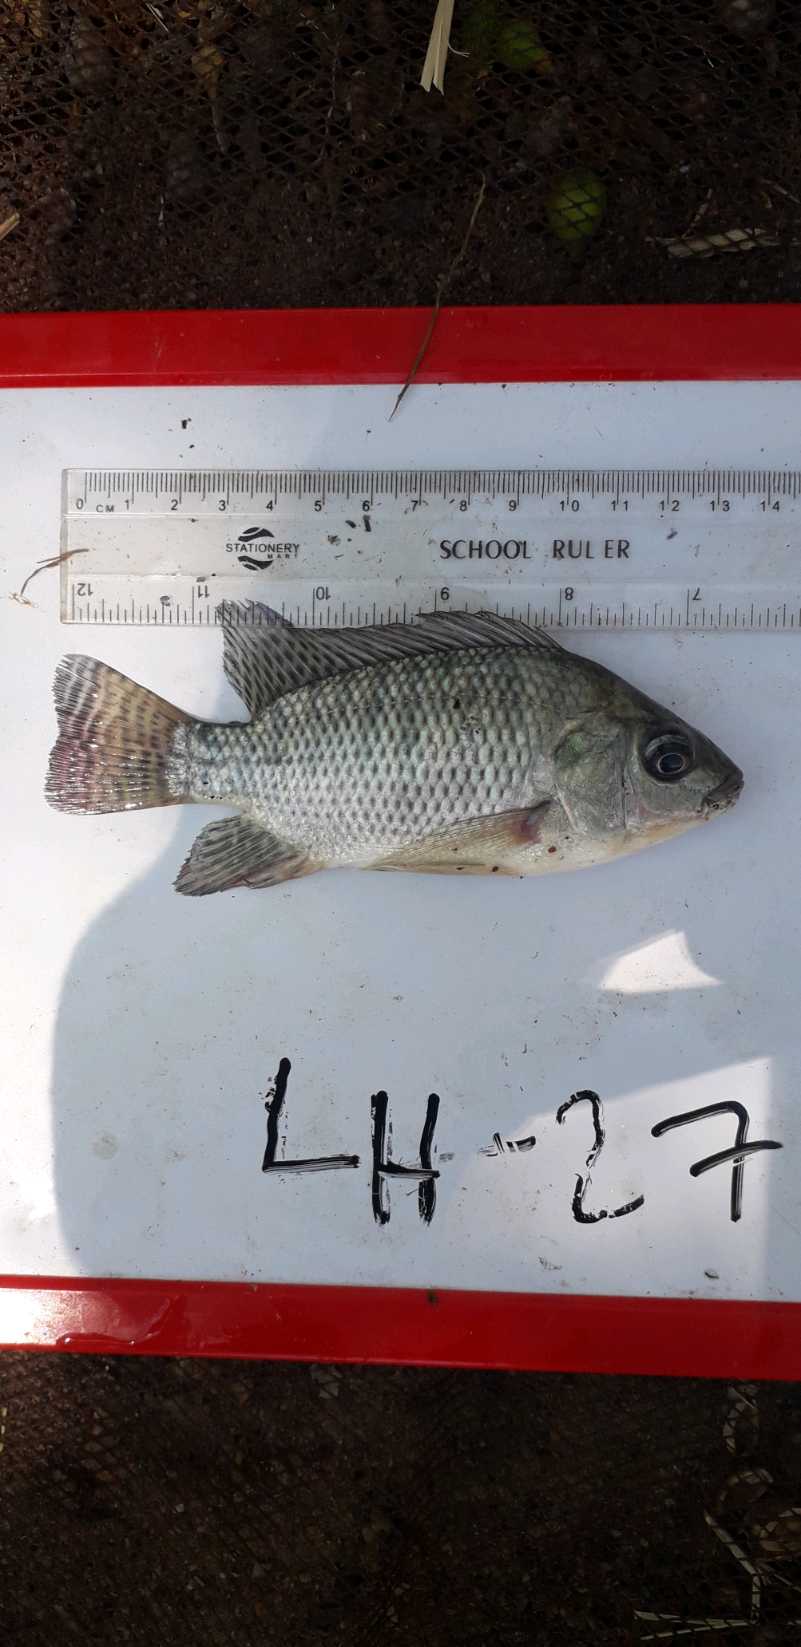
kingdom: Animalia
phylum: Chordata
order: Perciformes
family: Cichlidae
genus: Oreochromis
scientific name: Oreochromis niloticus
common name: Nile tilapia
